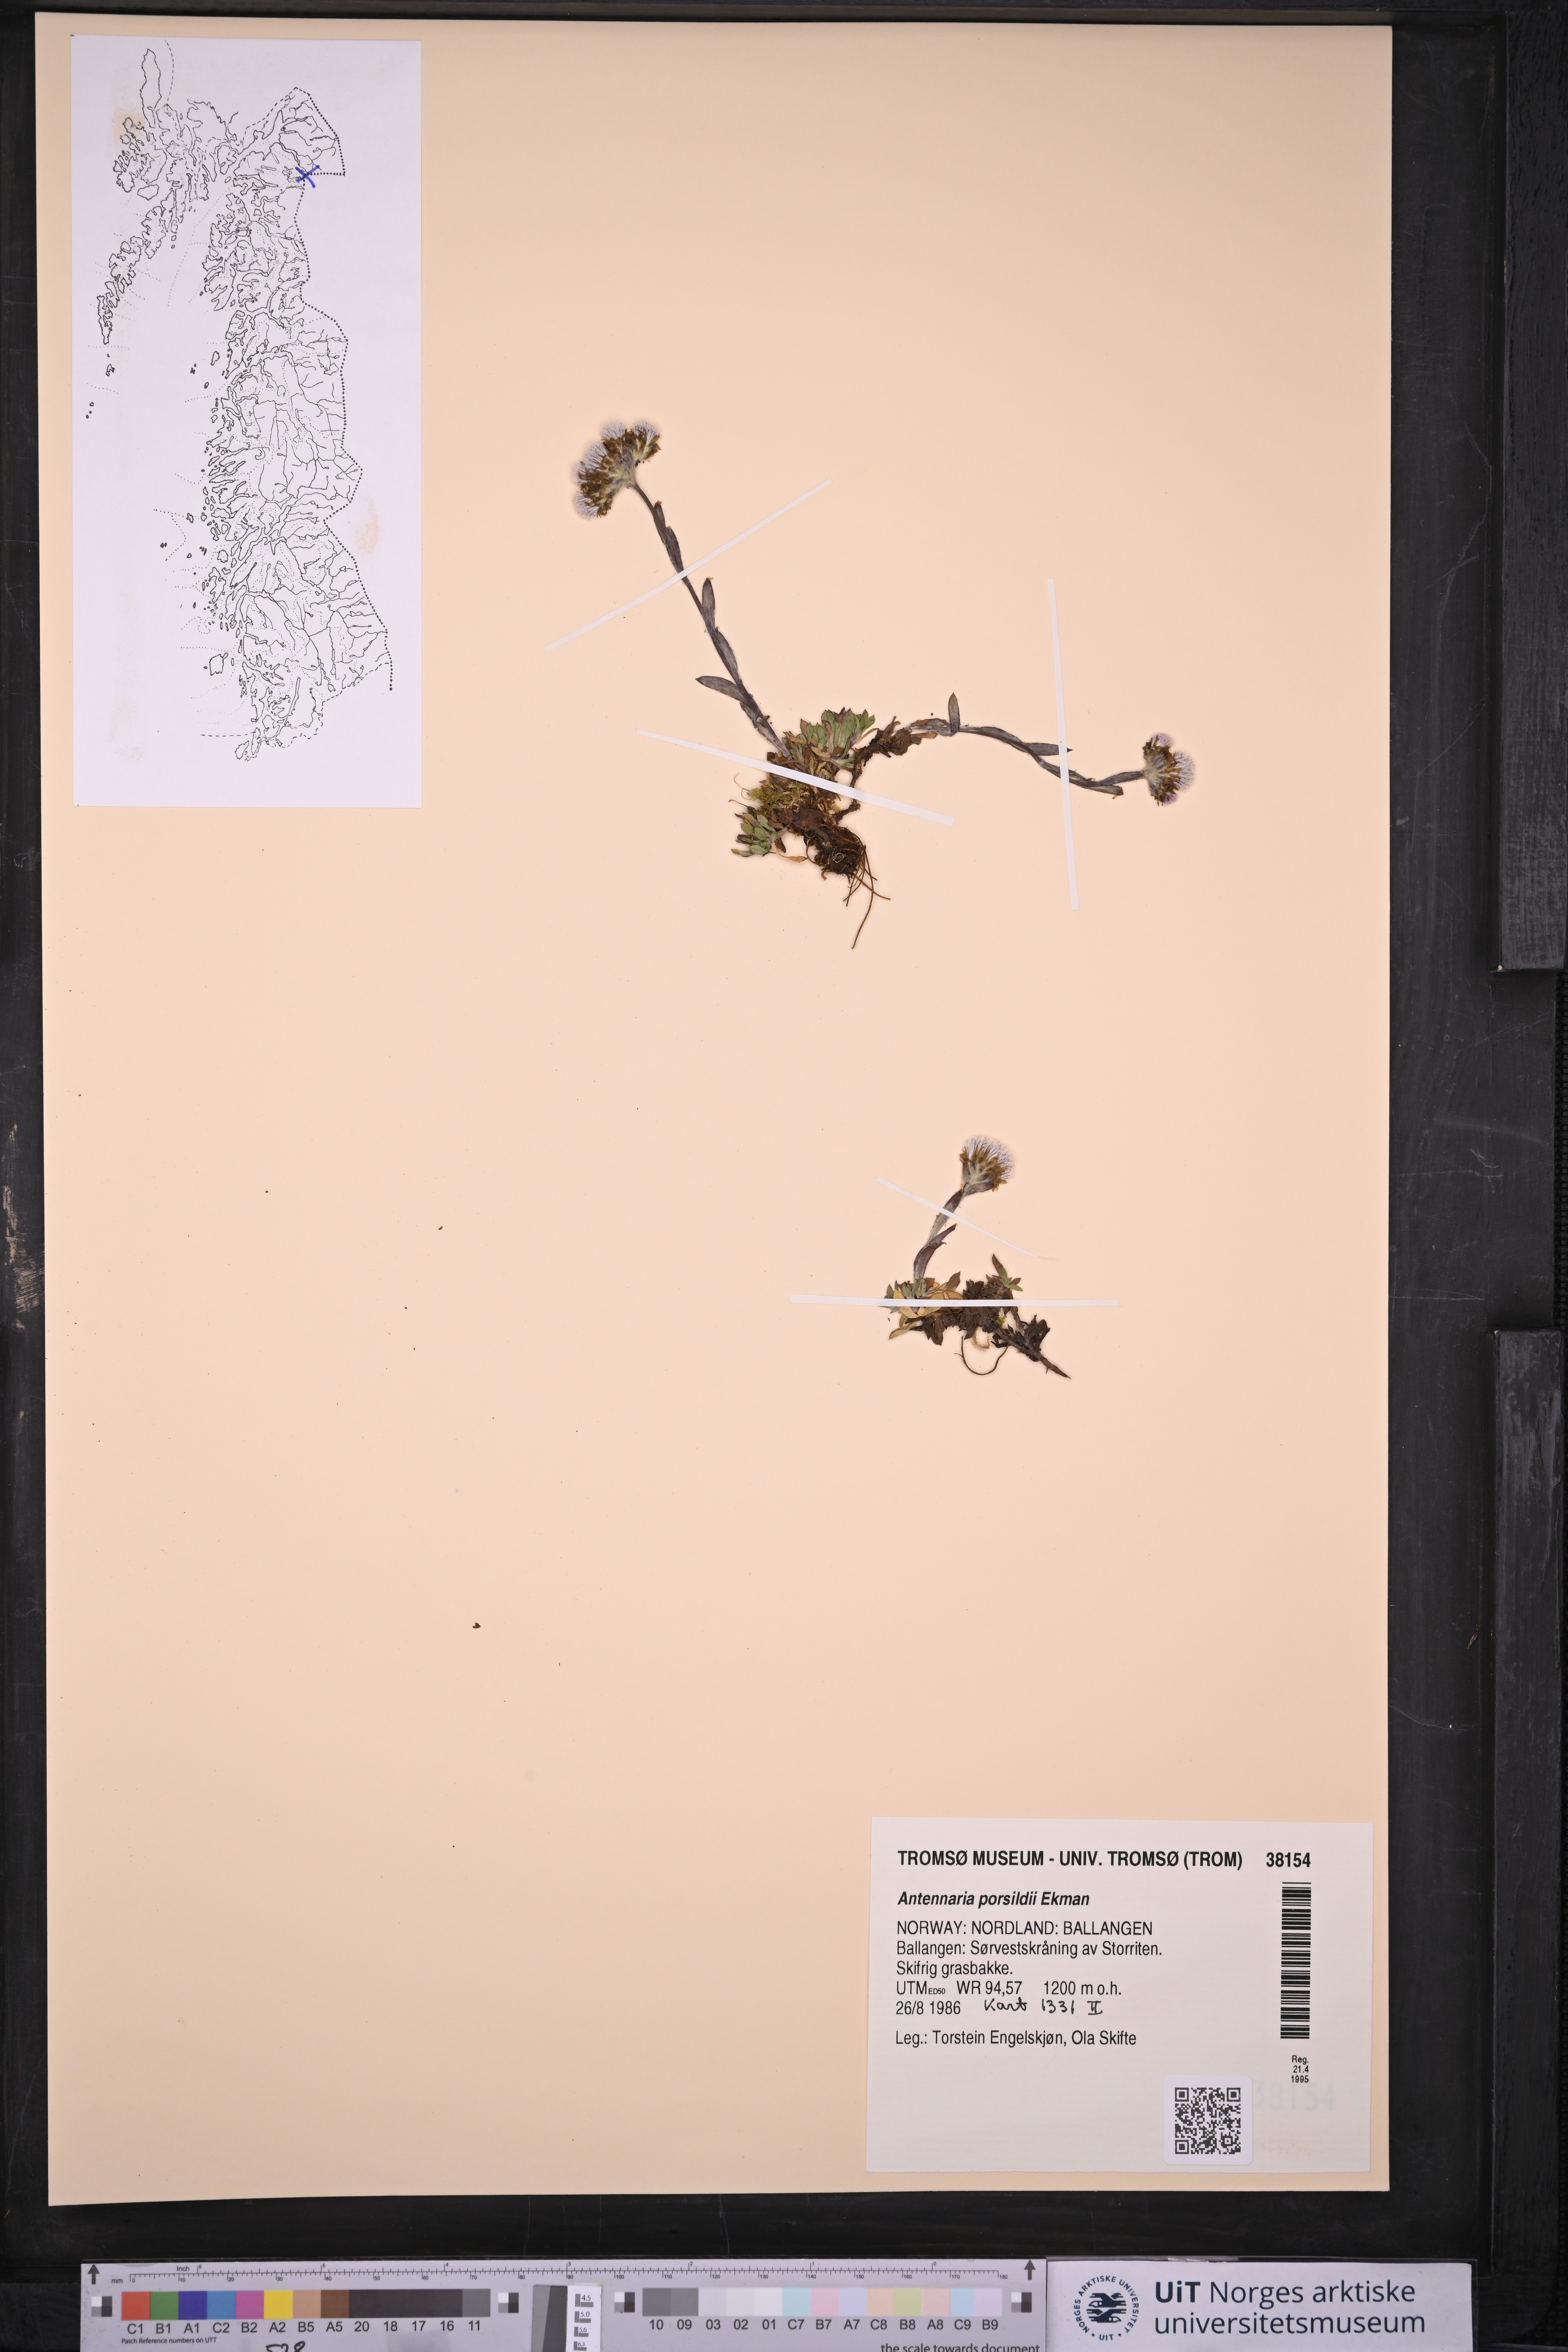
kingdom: Plantae
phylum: Tracheophyta
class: Magnoliopsida
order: Asterales
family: Asteraceae
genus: Antennaria
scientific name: Antennaria porsildii
